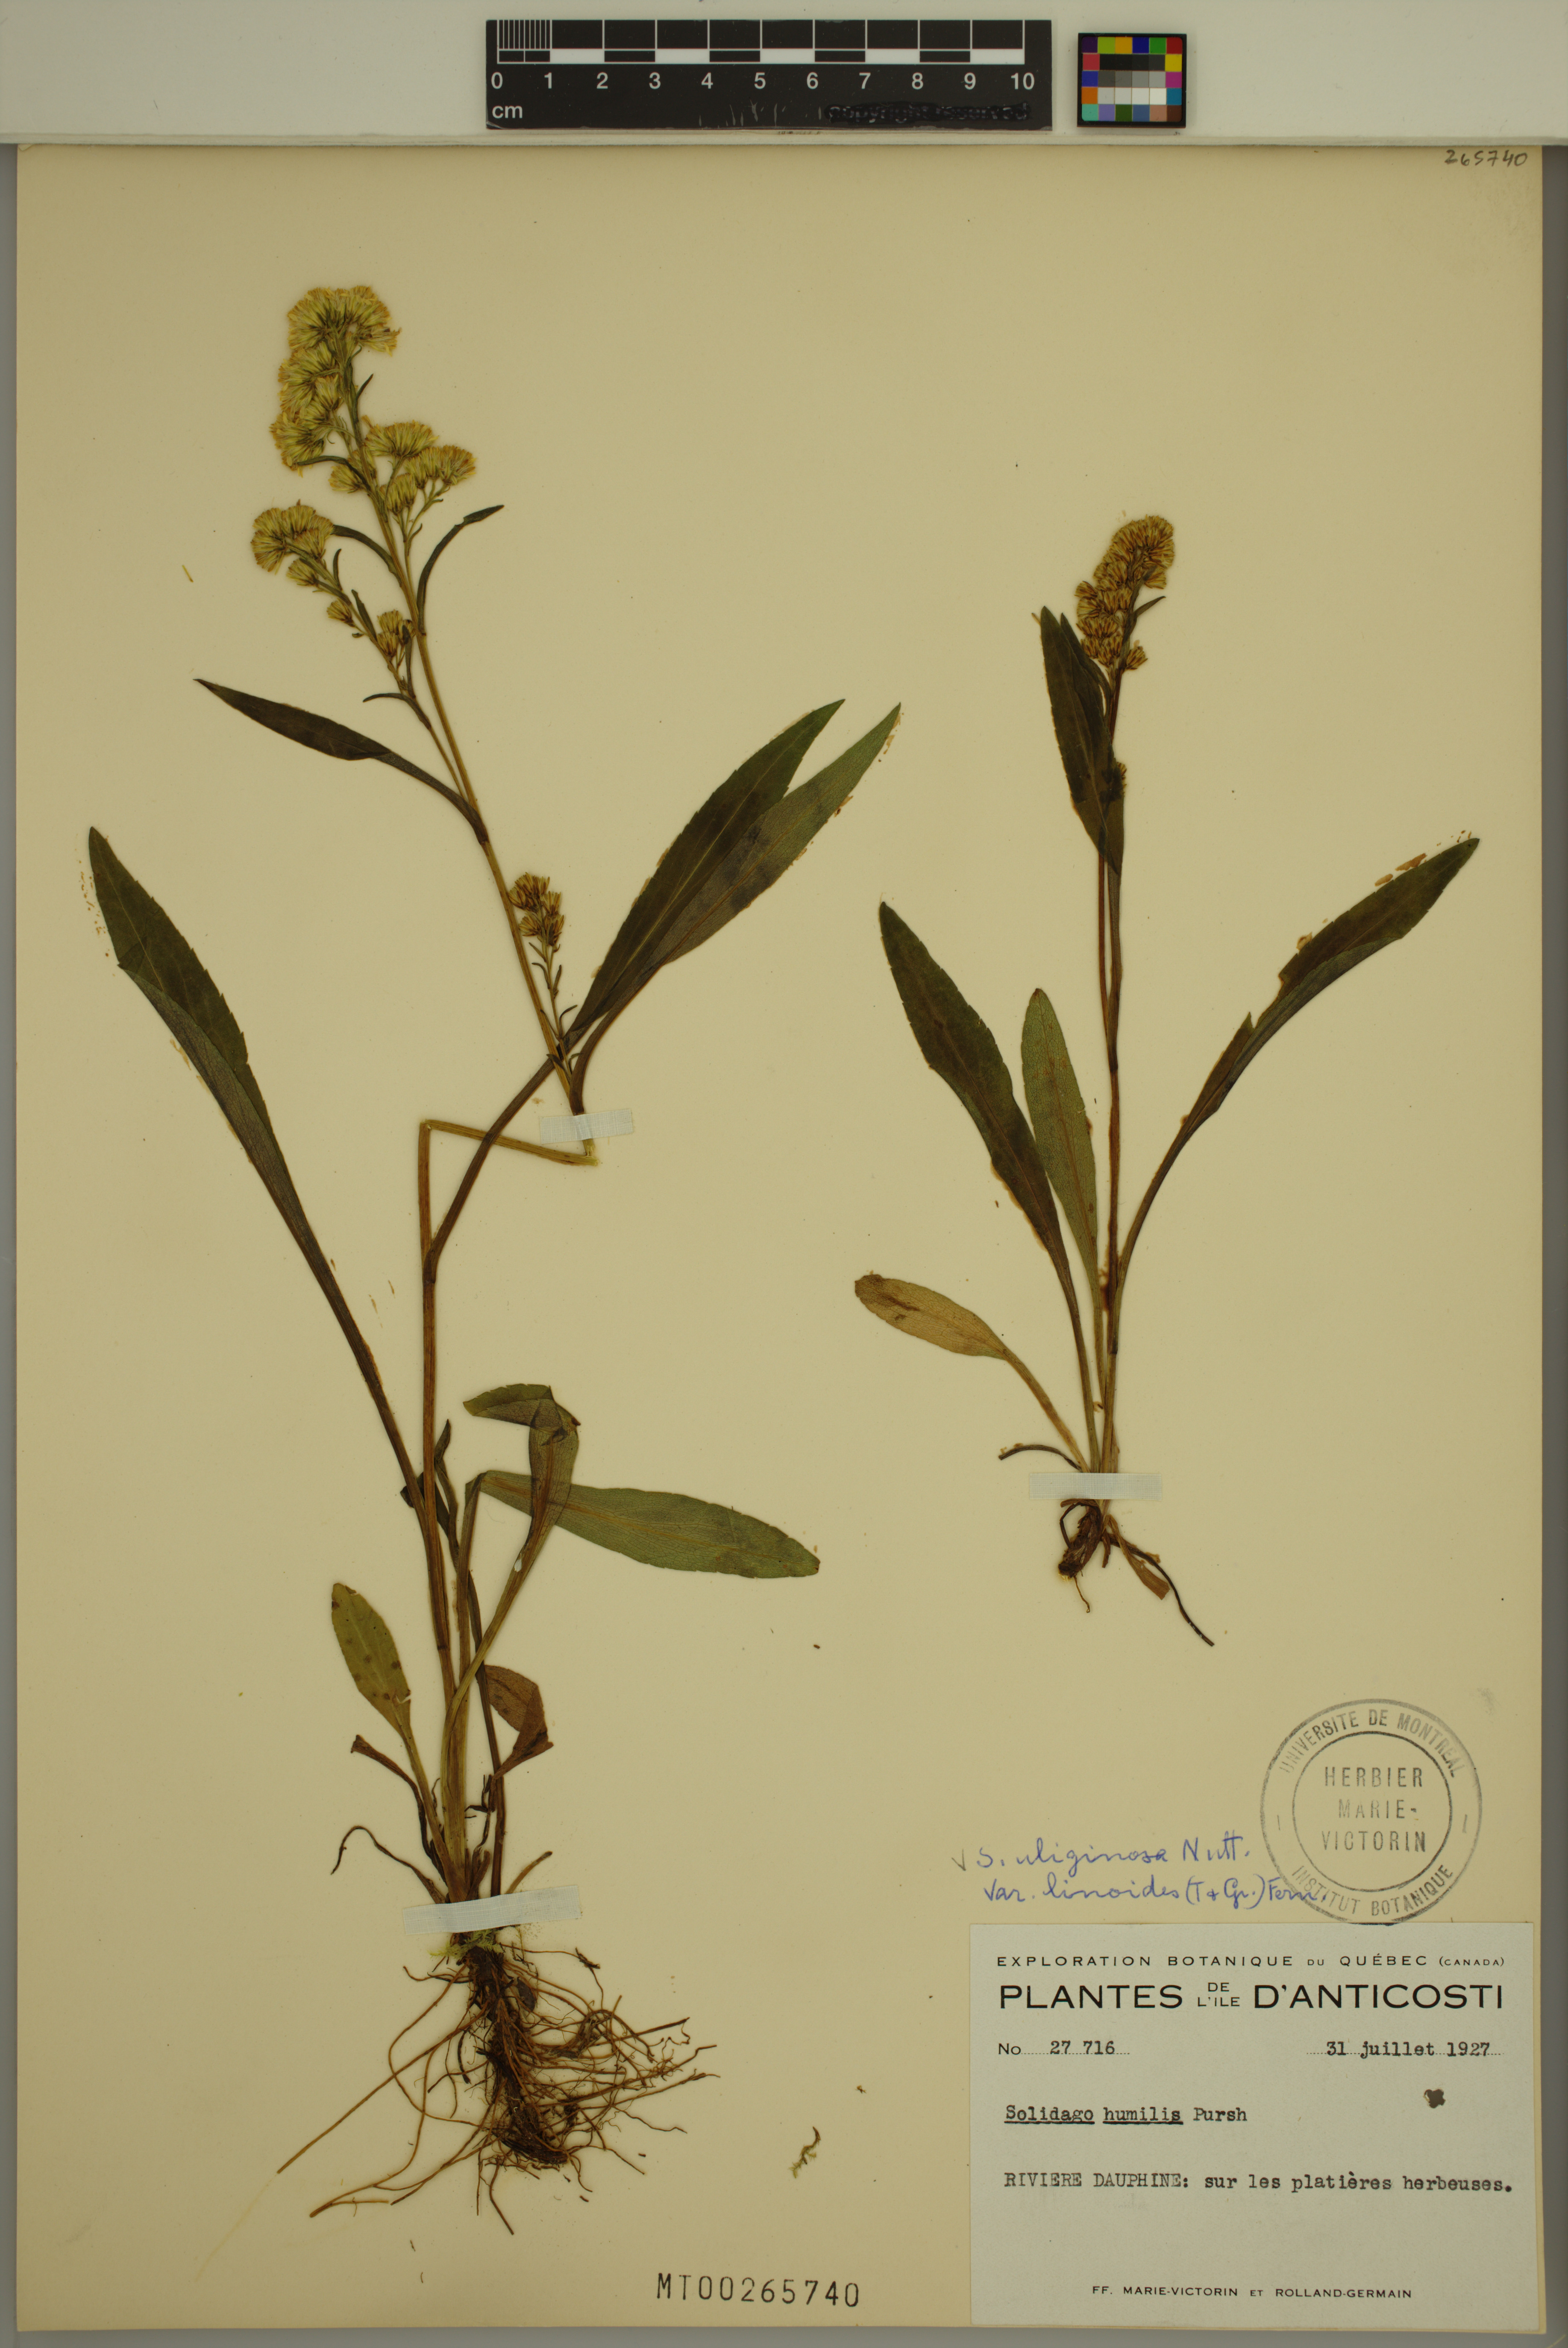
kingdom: Plantae
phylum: Tracheophyta
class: Magnoliopsida
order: Asterales
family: Asteraceae
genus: Solidago
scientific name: Solidago uliginosa
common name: Bog goldenrod
